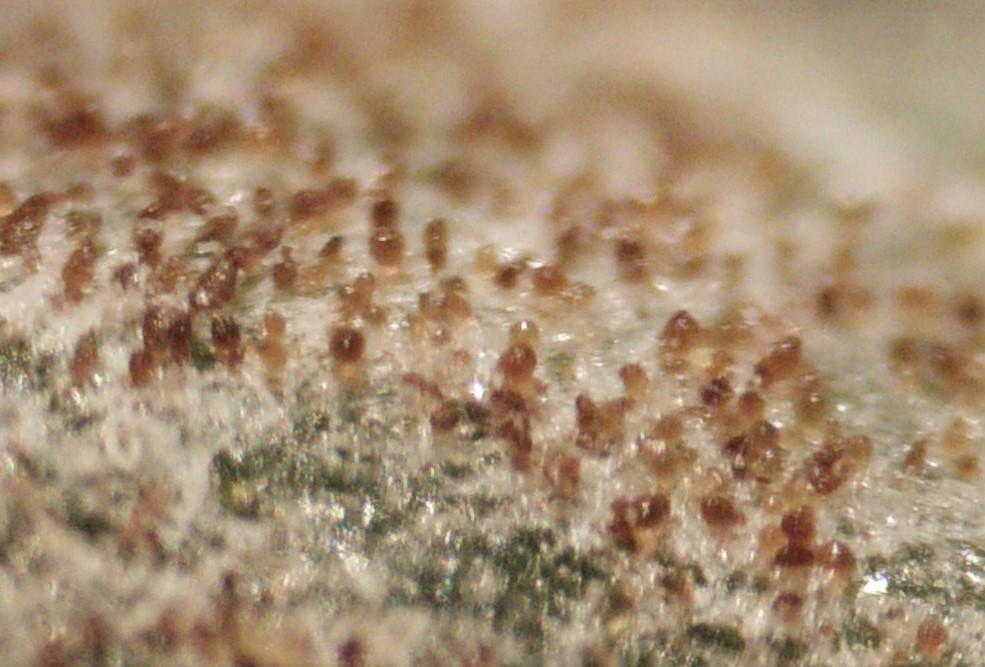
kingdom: Fungi
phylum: Ascomycota
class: Dothideomycetes
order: Pleosporales
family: Phaeosphaeriaceae
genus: Ampelomyces
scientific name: Ampelomyces quisqualis
